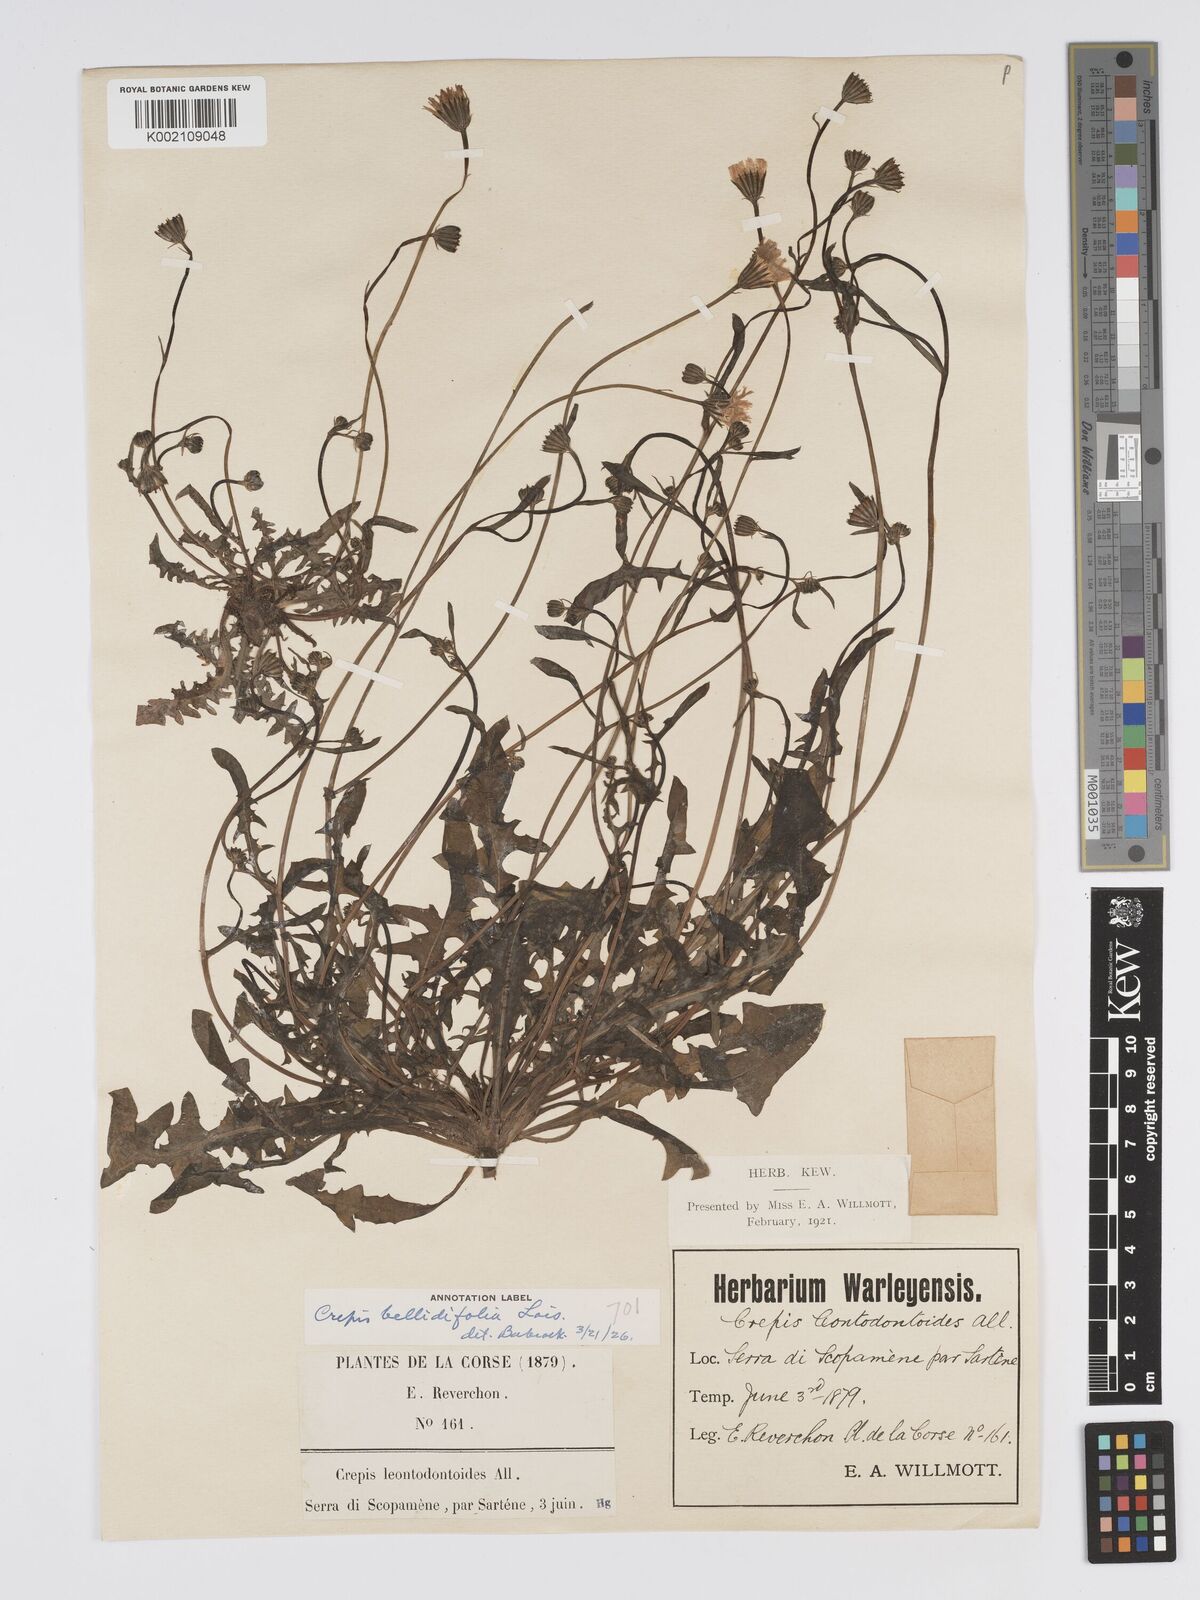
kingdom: Plantae
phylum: Tracheophyta
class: Magnoliopsida
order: Asterales
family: Asteraceae
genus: Crepis
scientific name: Crepis bellidifolia
